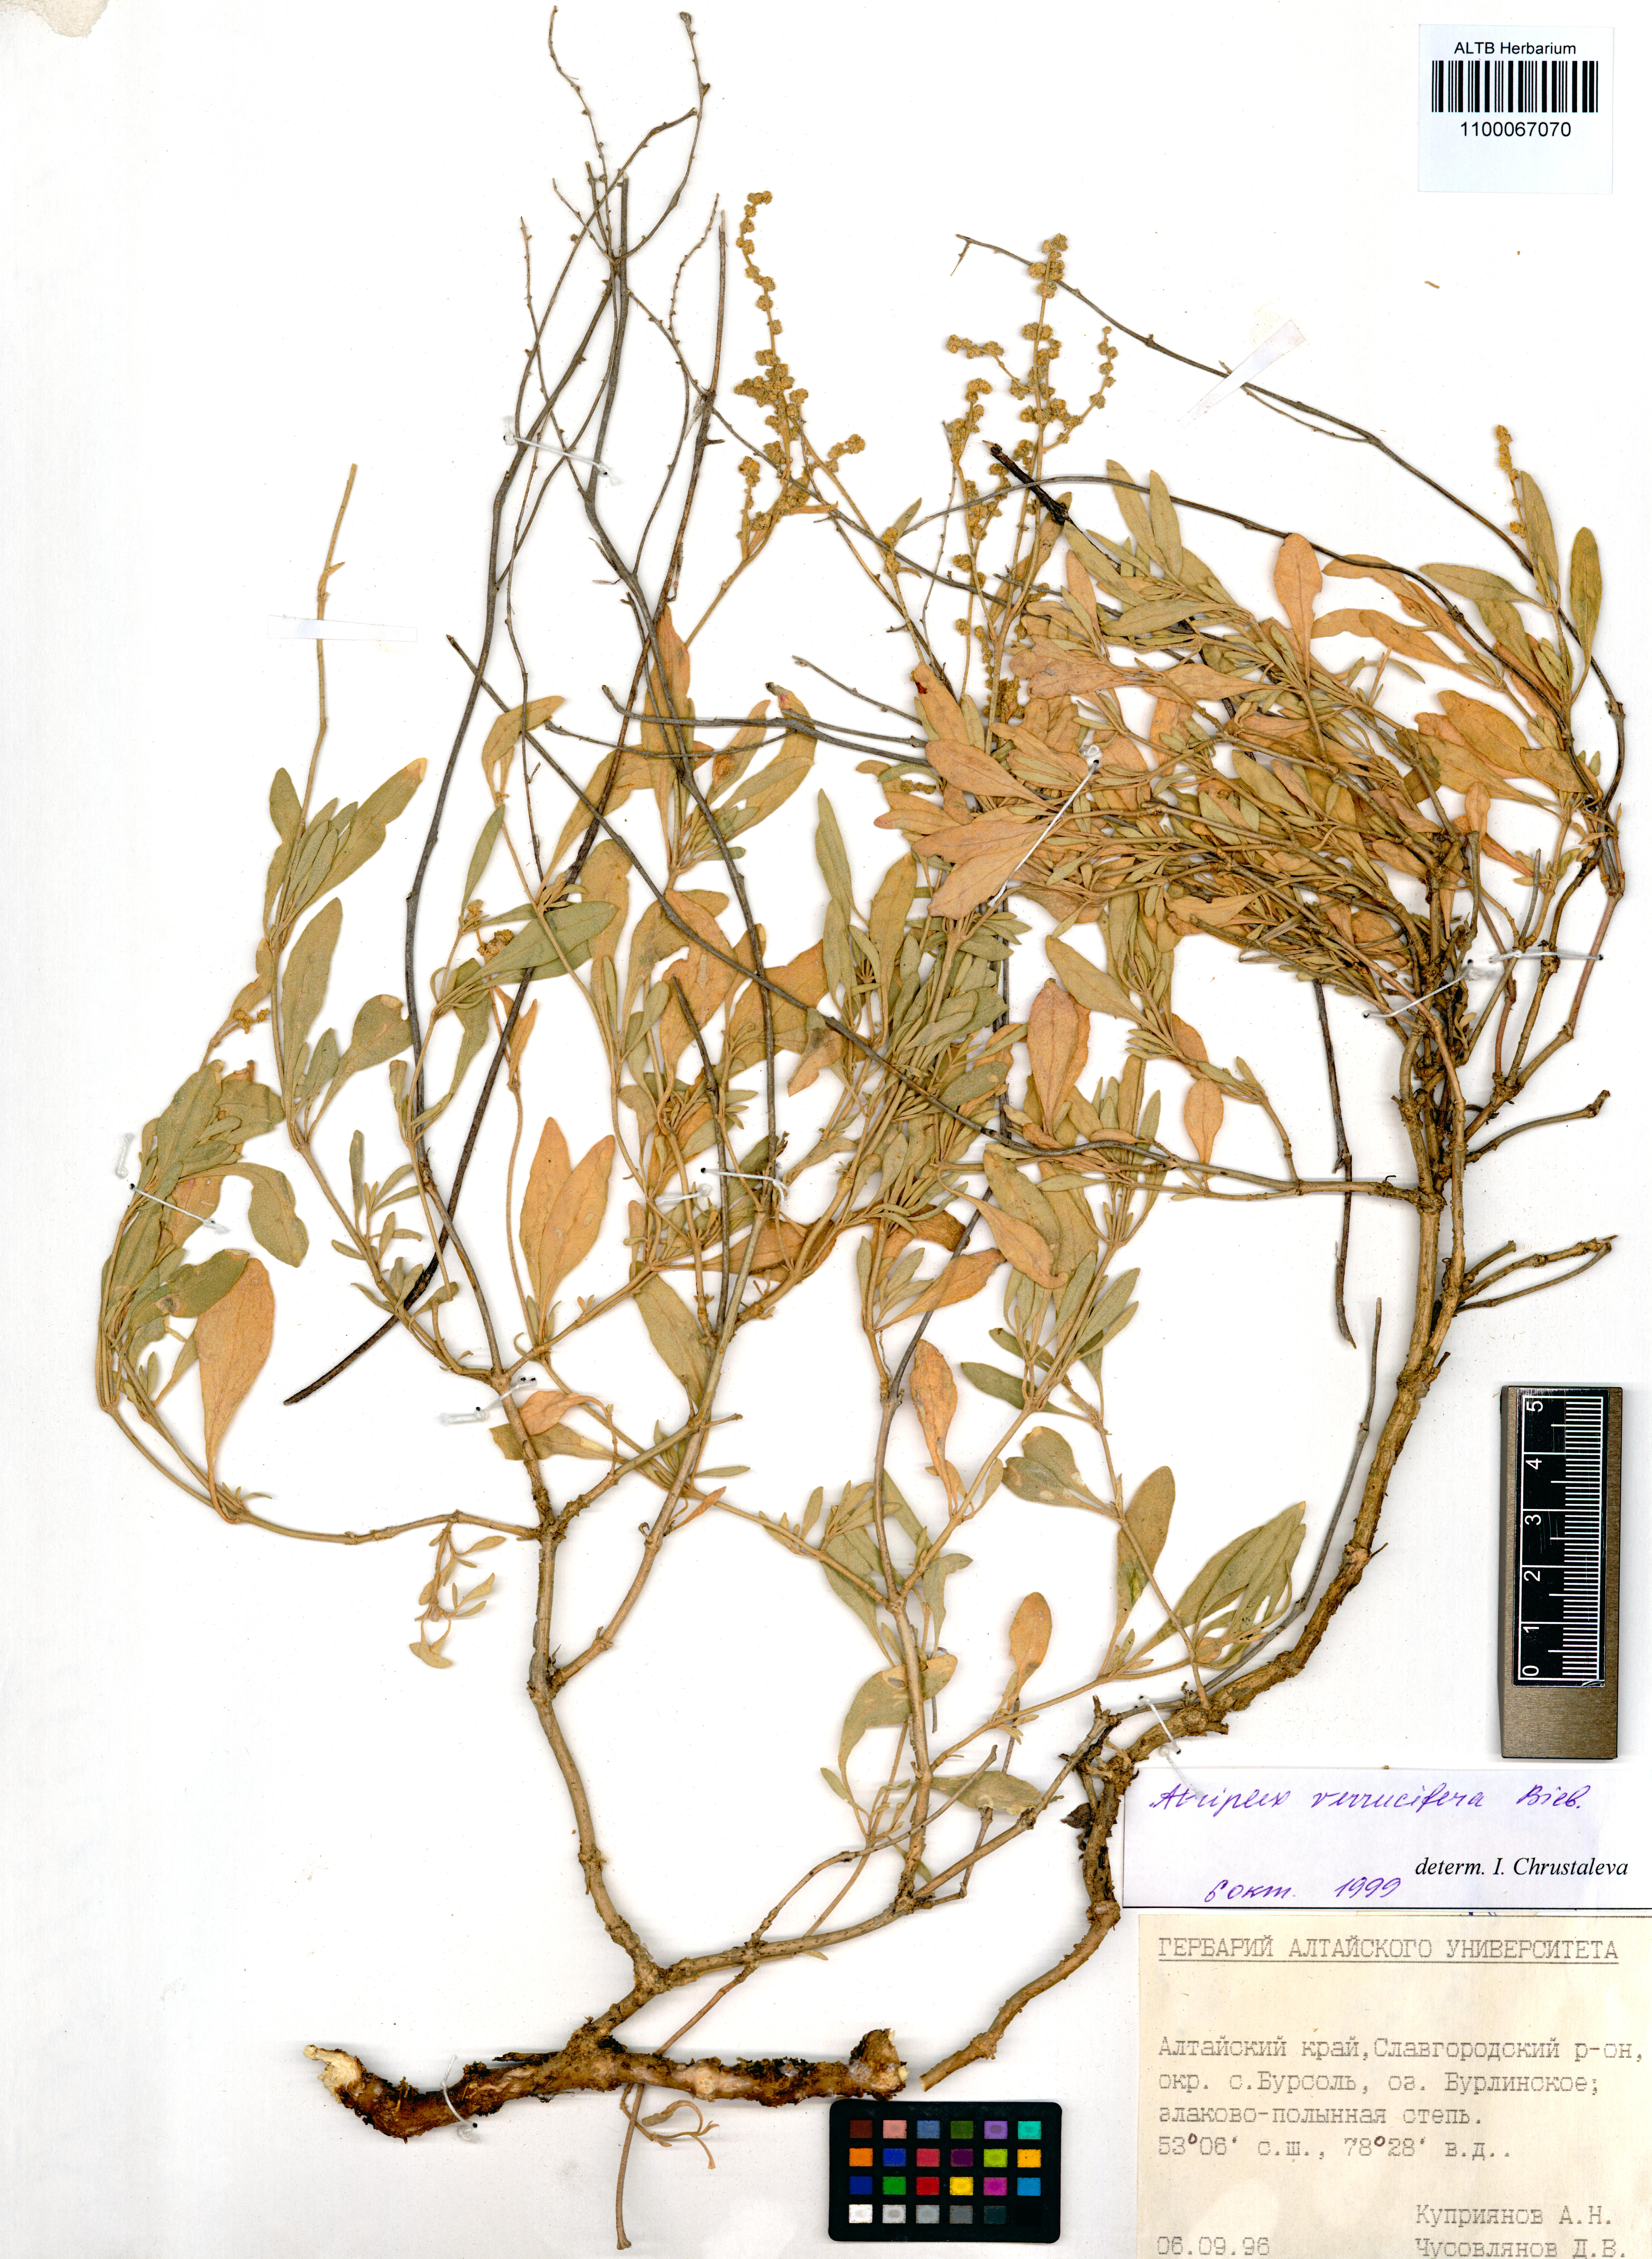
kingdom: Plantae
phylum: Tracheophyta
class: Magnoliopsida
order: Caryophyllales
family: Amaranthaceae
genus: Halimione
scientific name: Halimione verrucifera
